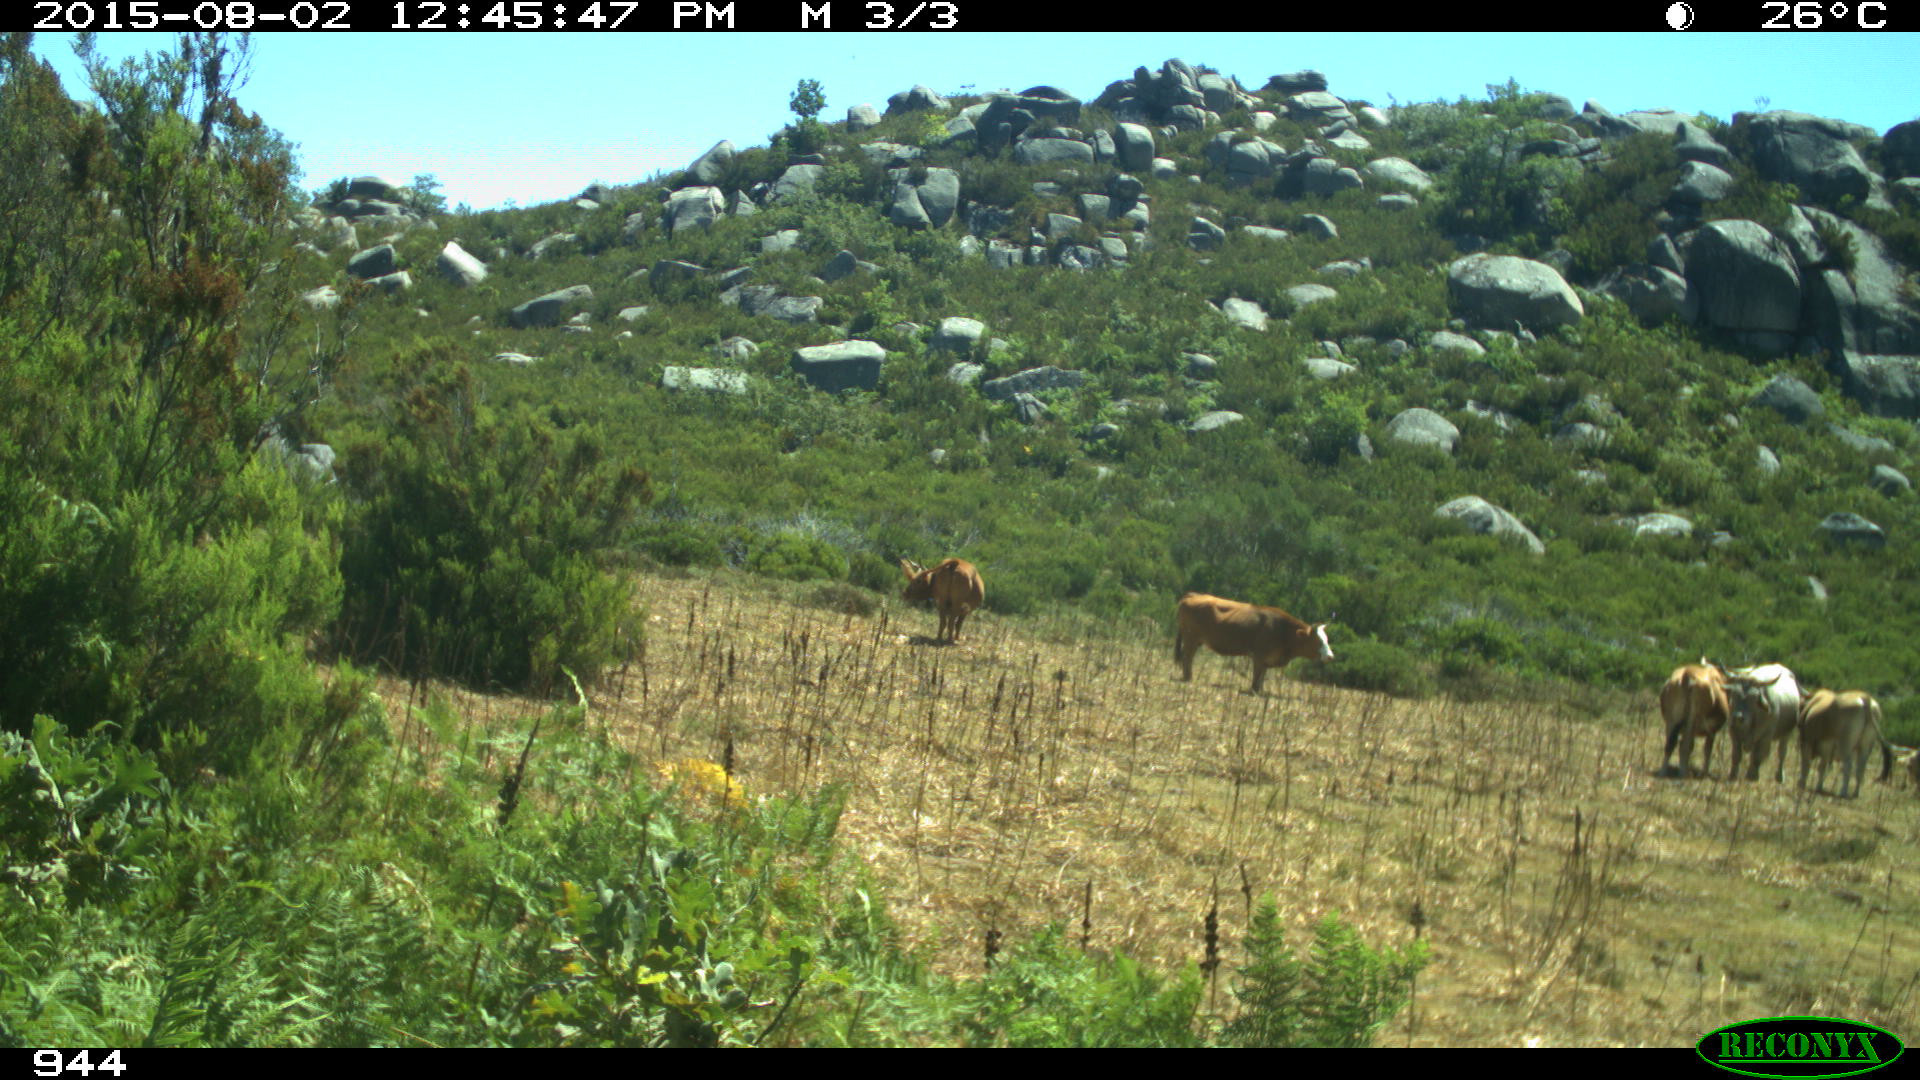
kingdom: Animalia
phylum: Chordata
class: Mammalia
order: Artiodactyla
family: Bovidae
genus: Bos
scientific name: Bos taurus
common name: Domesticated cattle
